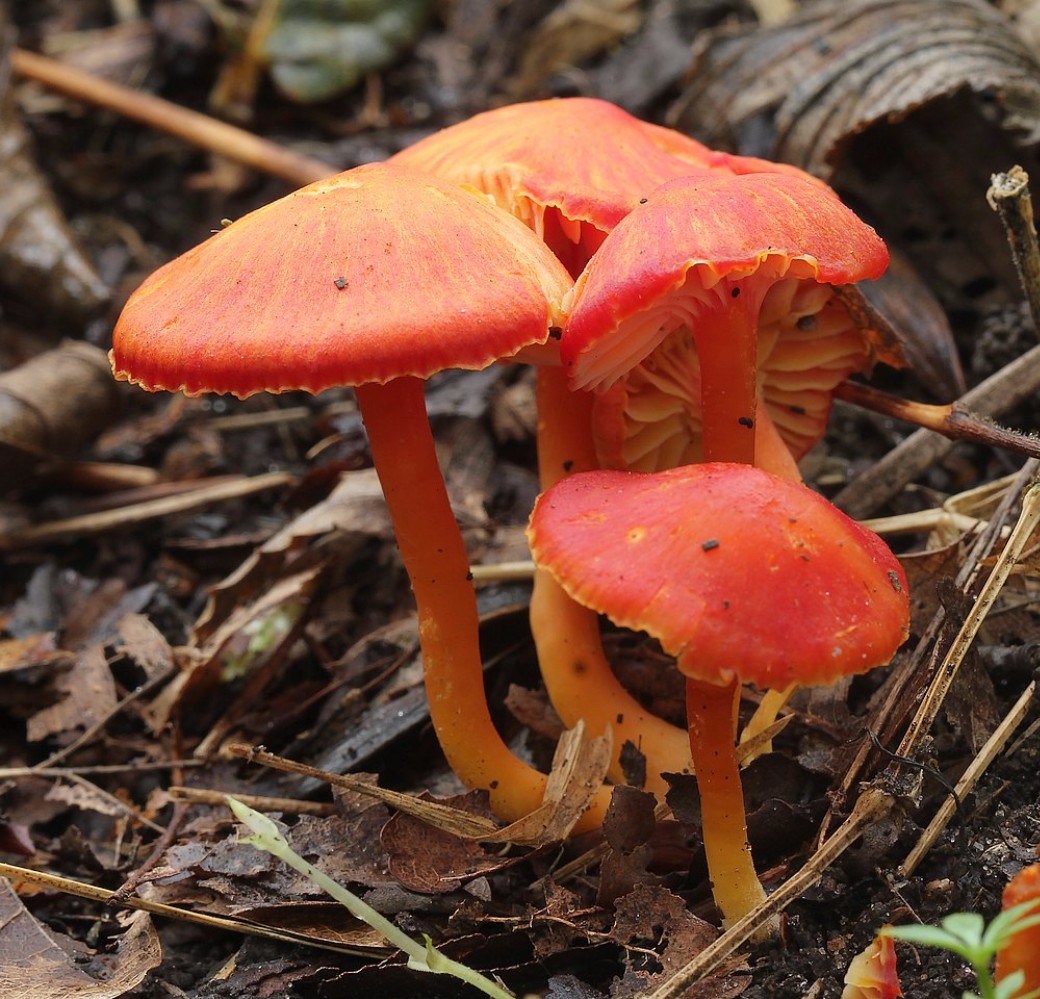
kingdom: Fungi
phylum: Basidiomycota
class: Agaricomycetes
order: Agaricales
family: Hygrophoraceae
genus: Hygrocybe
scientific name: Hygrocybe coccinea
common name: cinnober-vokshat
